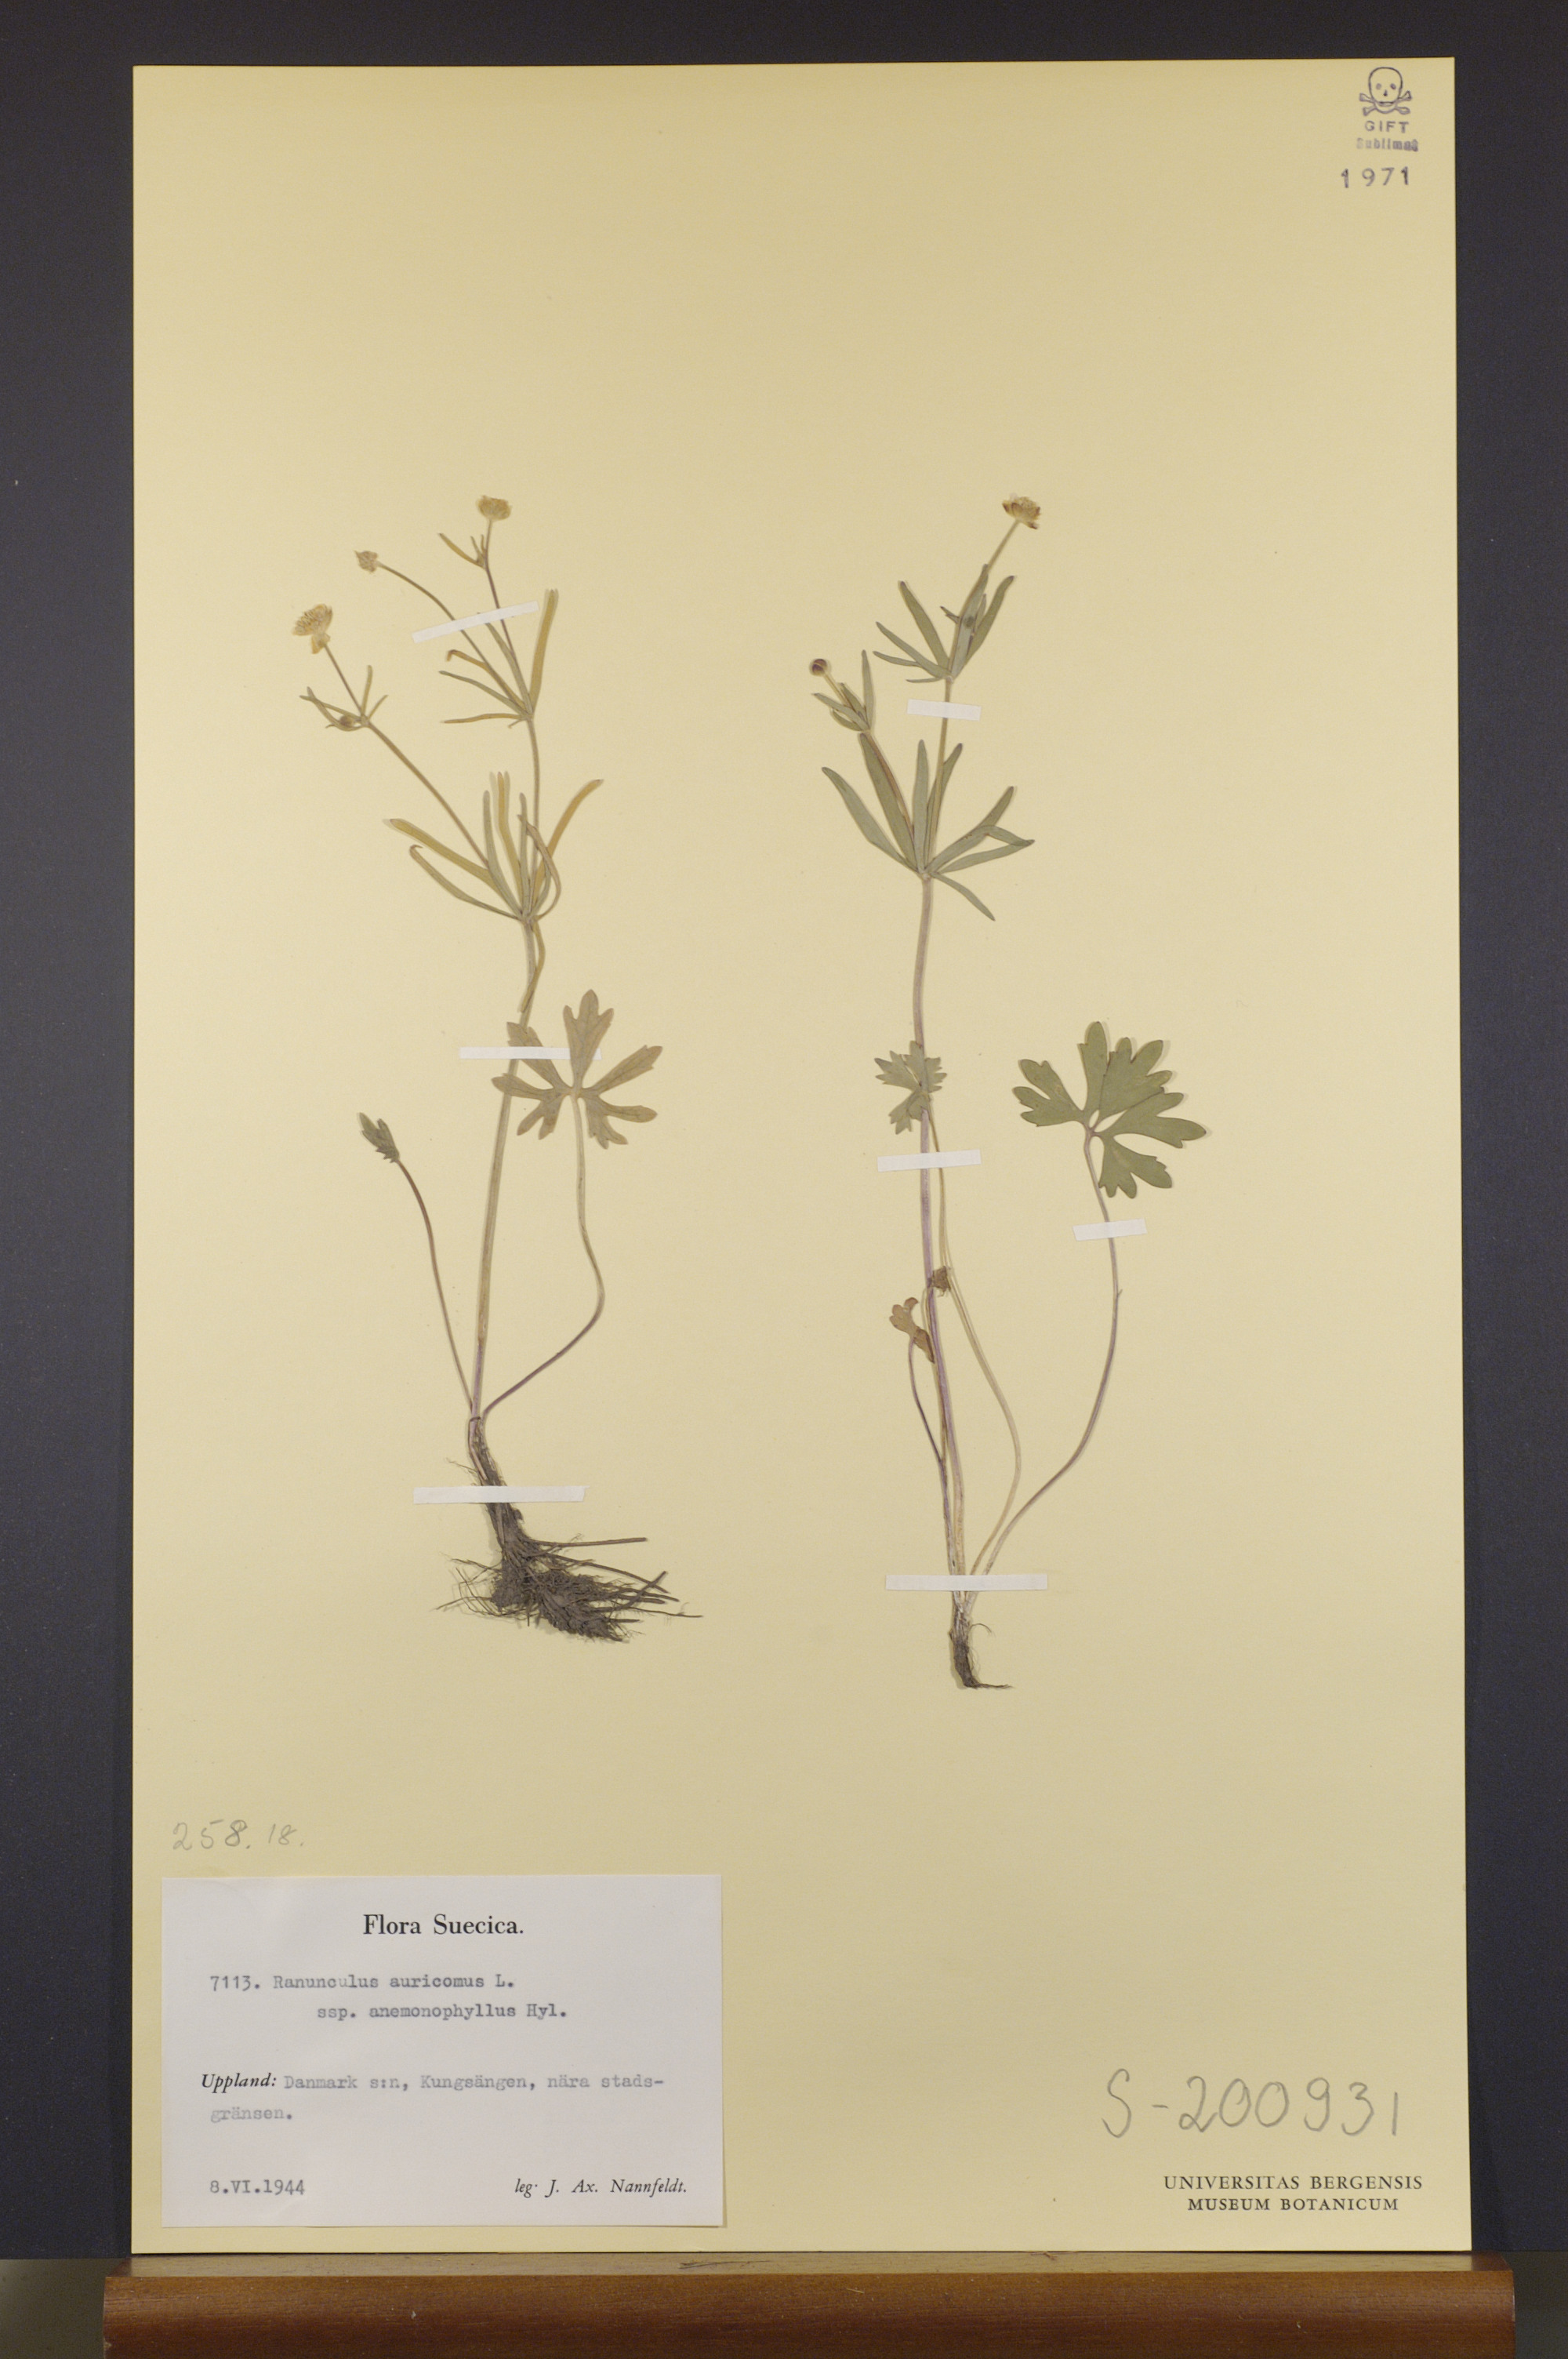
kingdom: Plantae
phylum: Tracheophyta
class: Magnoliopsida
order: Ranunculales
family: Ranunculaceae
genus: Ranunculus
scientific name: Ranunculus anemonophyllus
